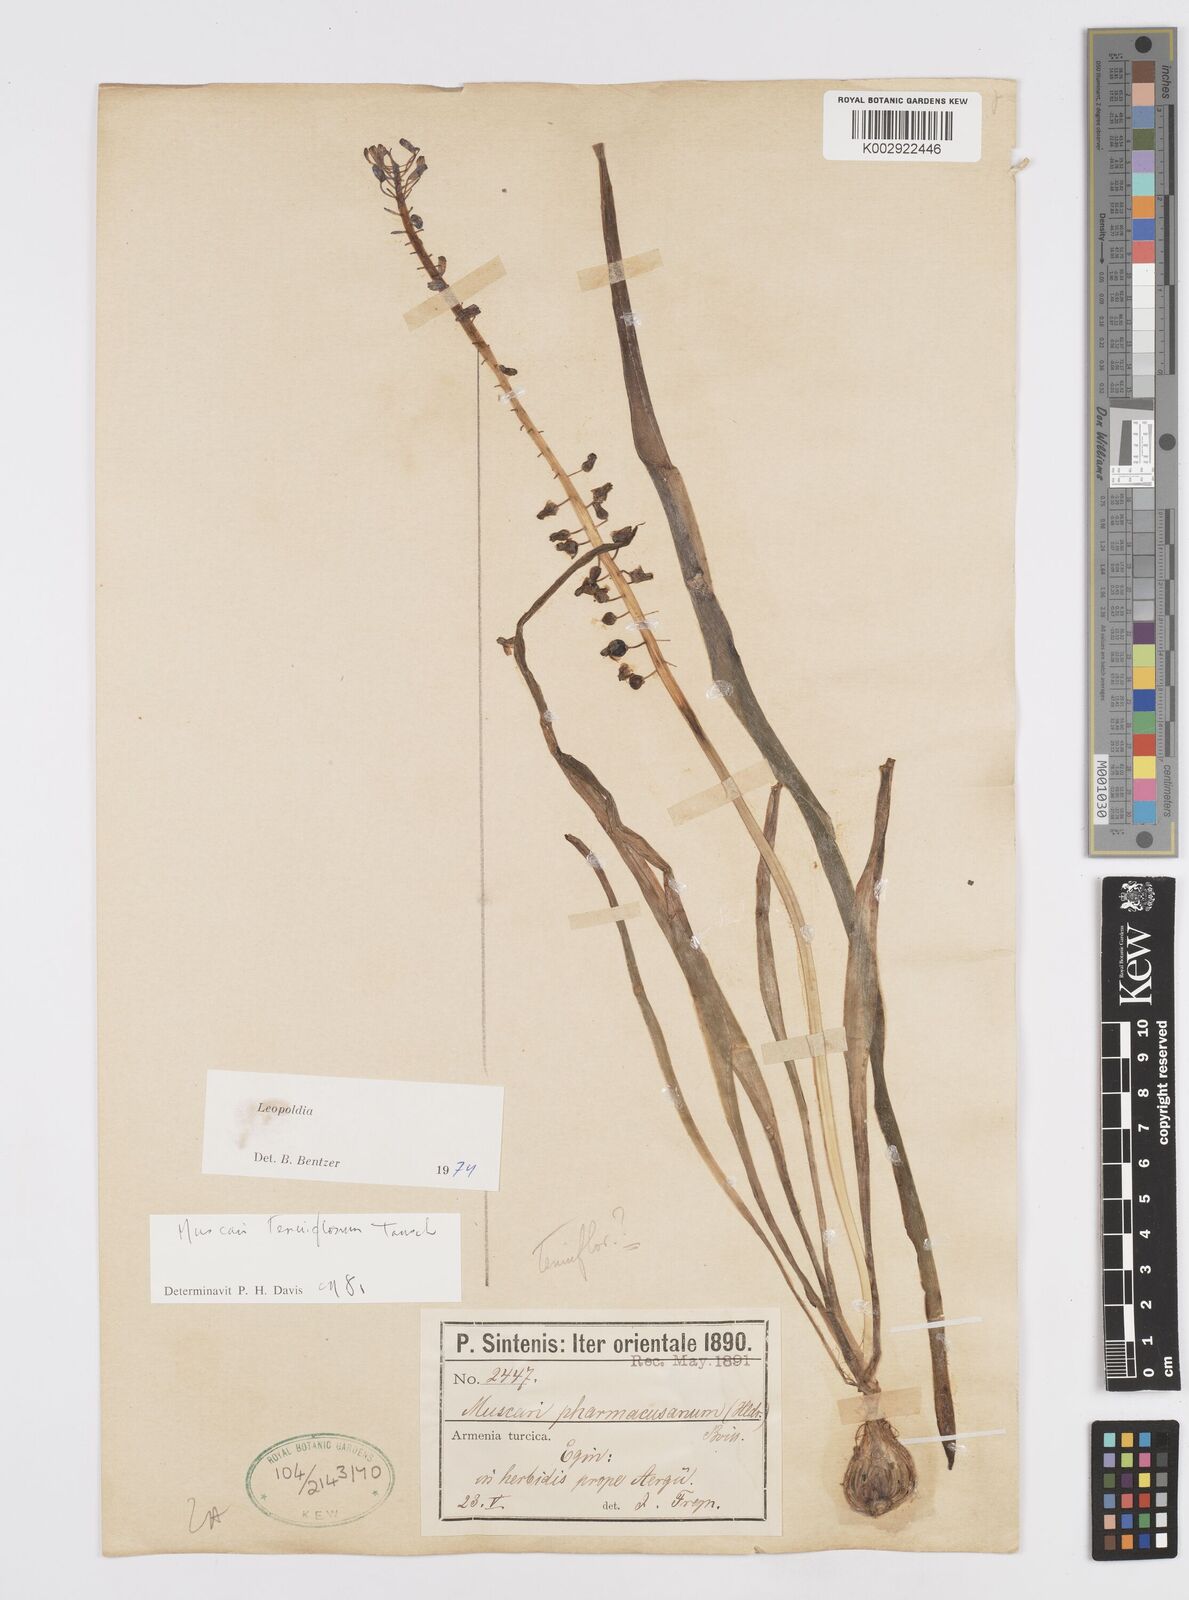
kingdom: Plantae
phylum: Tracheophyta
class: Liliopsida
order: Asparagales
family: Asparagaceae
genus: Muscari
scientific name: Muscari tenuiflorum
